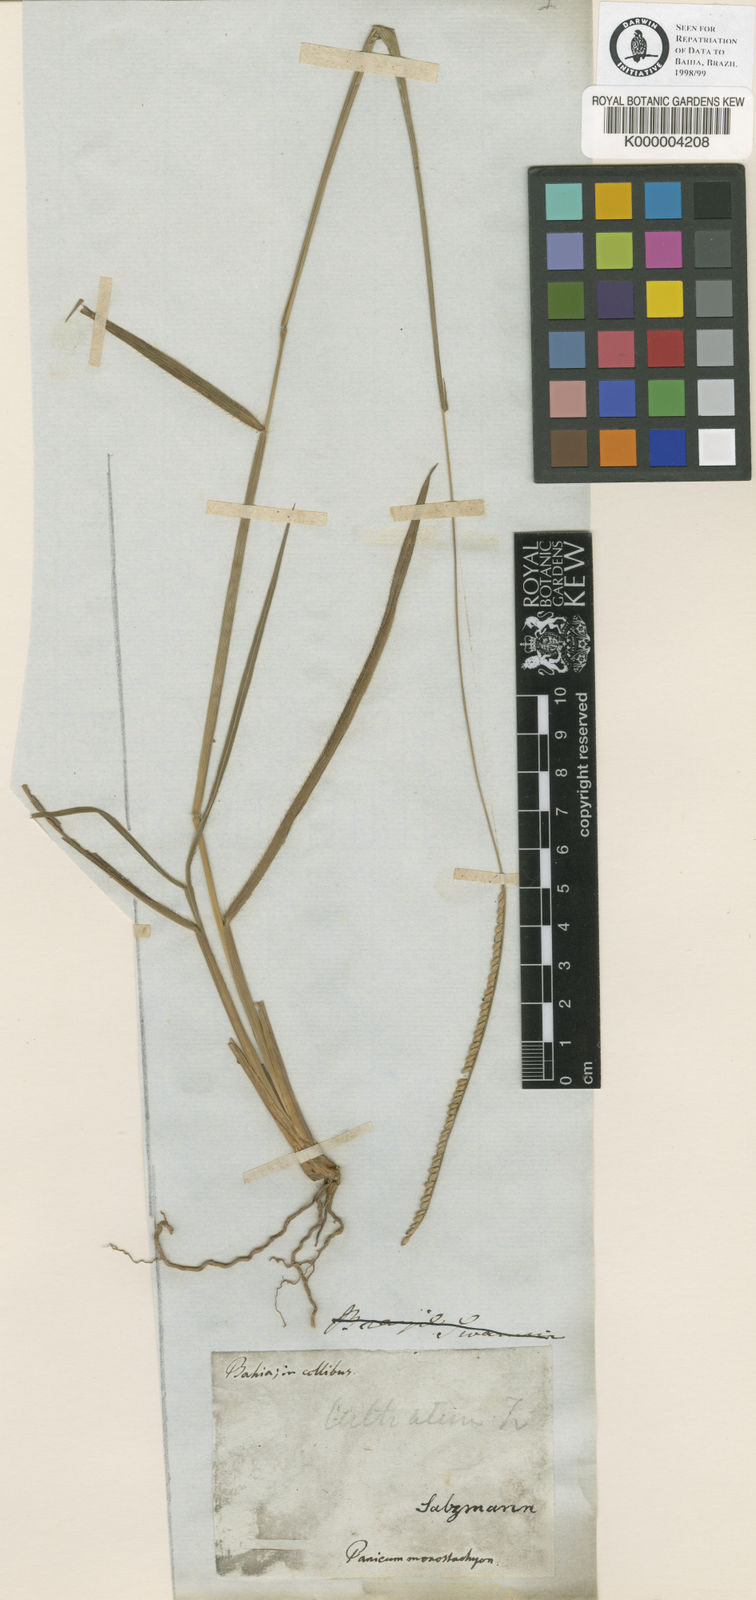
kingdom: Plantae
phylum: Tracheophyta
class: Liliopsida
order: Poales
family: Poaceae
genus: Paspalum
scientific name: Paspalum pilosum
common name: Crowngrass
